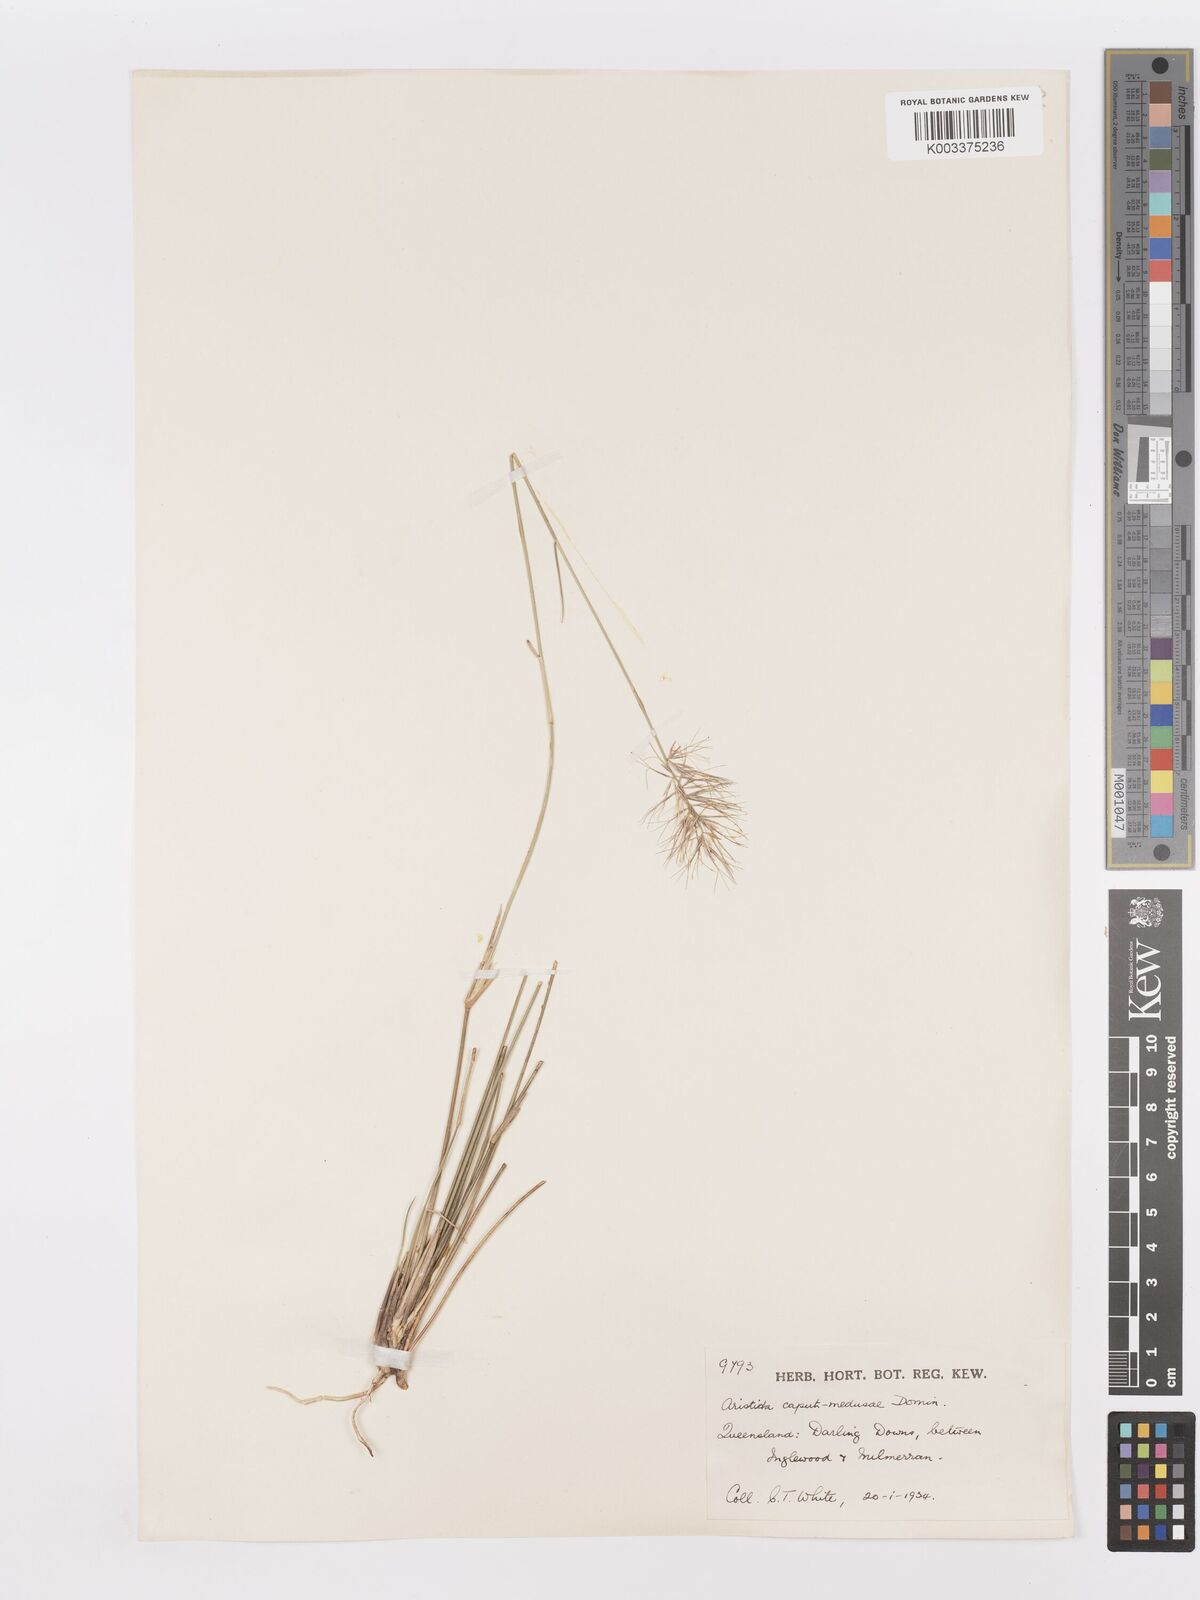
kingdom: Plantae
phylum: Tracheophyta
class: Liliopsida
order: Poales
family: Poaceae
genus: Aristida
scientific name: Aristida caput-medusae
